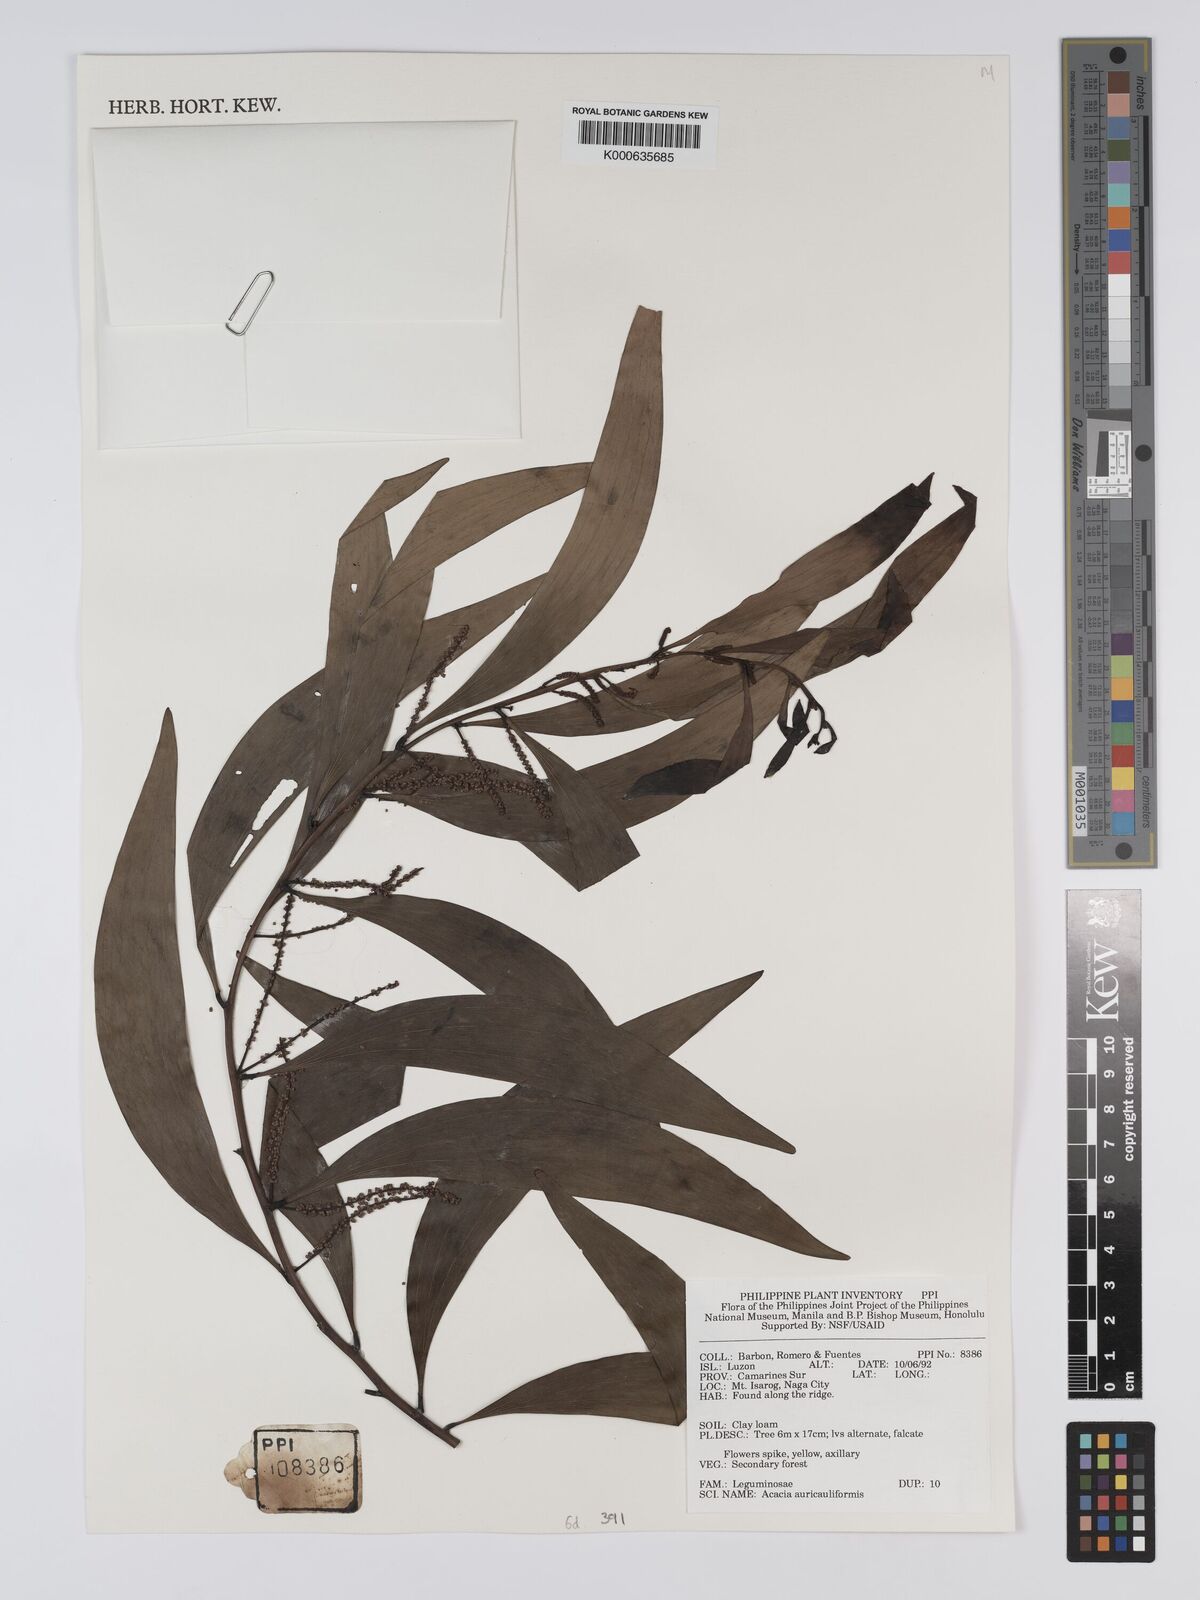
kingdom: Plantae
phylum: Tracheophyta
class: Magnoliopsida
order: Fabales
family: Fabaceae
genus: Acacia
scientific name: Acacia auriculiformis
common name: Earleaf acacia
